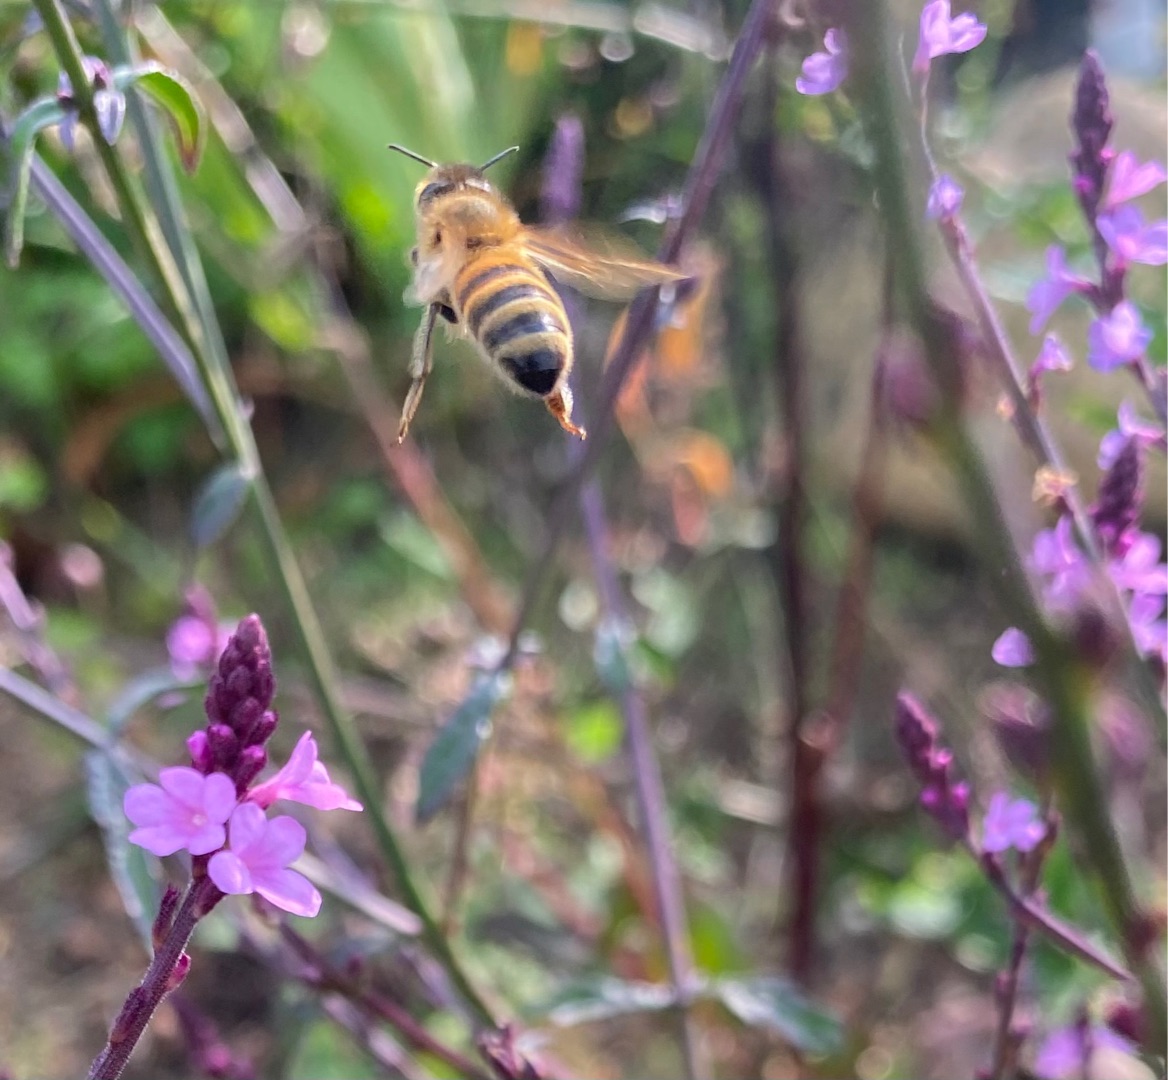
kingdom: Animalia
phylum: Arthropoda
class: Insecta
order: Hymenoptera
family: Apidae
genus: Apis
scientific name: Apis mellifera
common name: Honningbi
